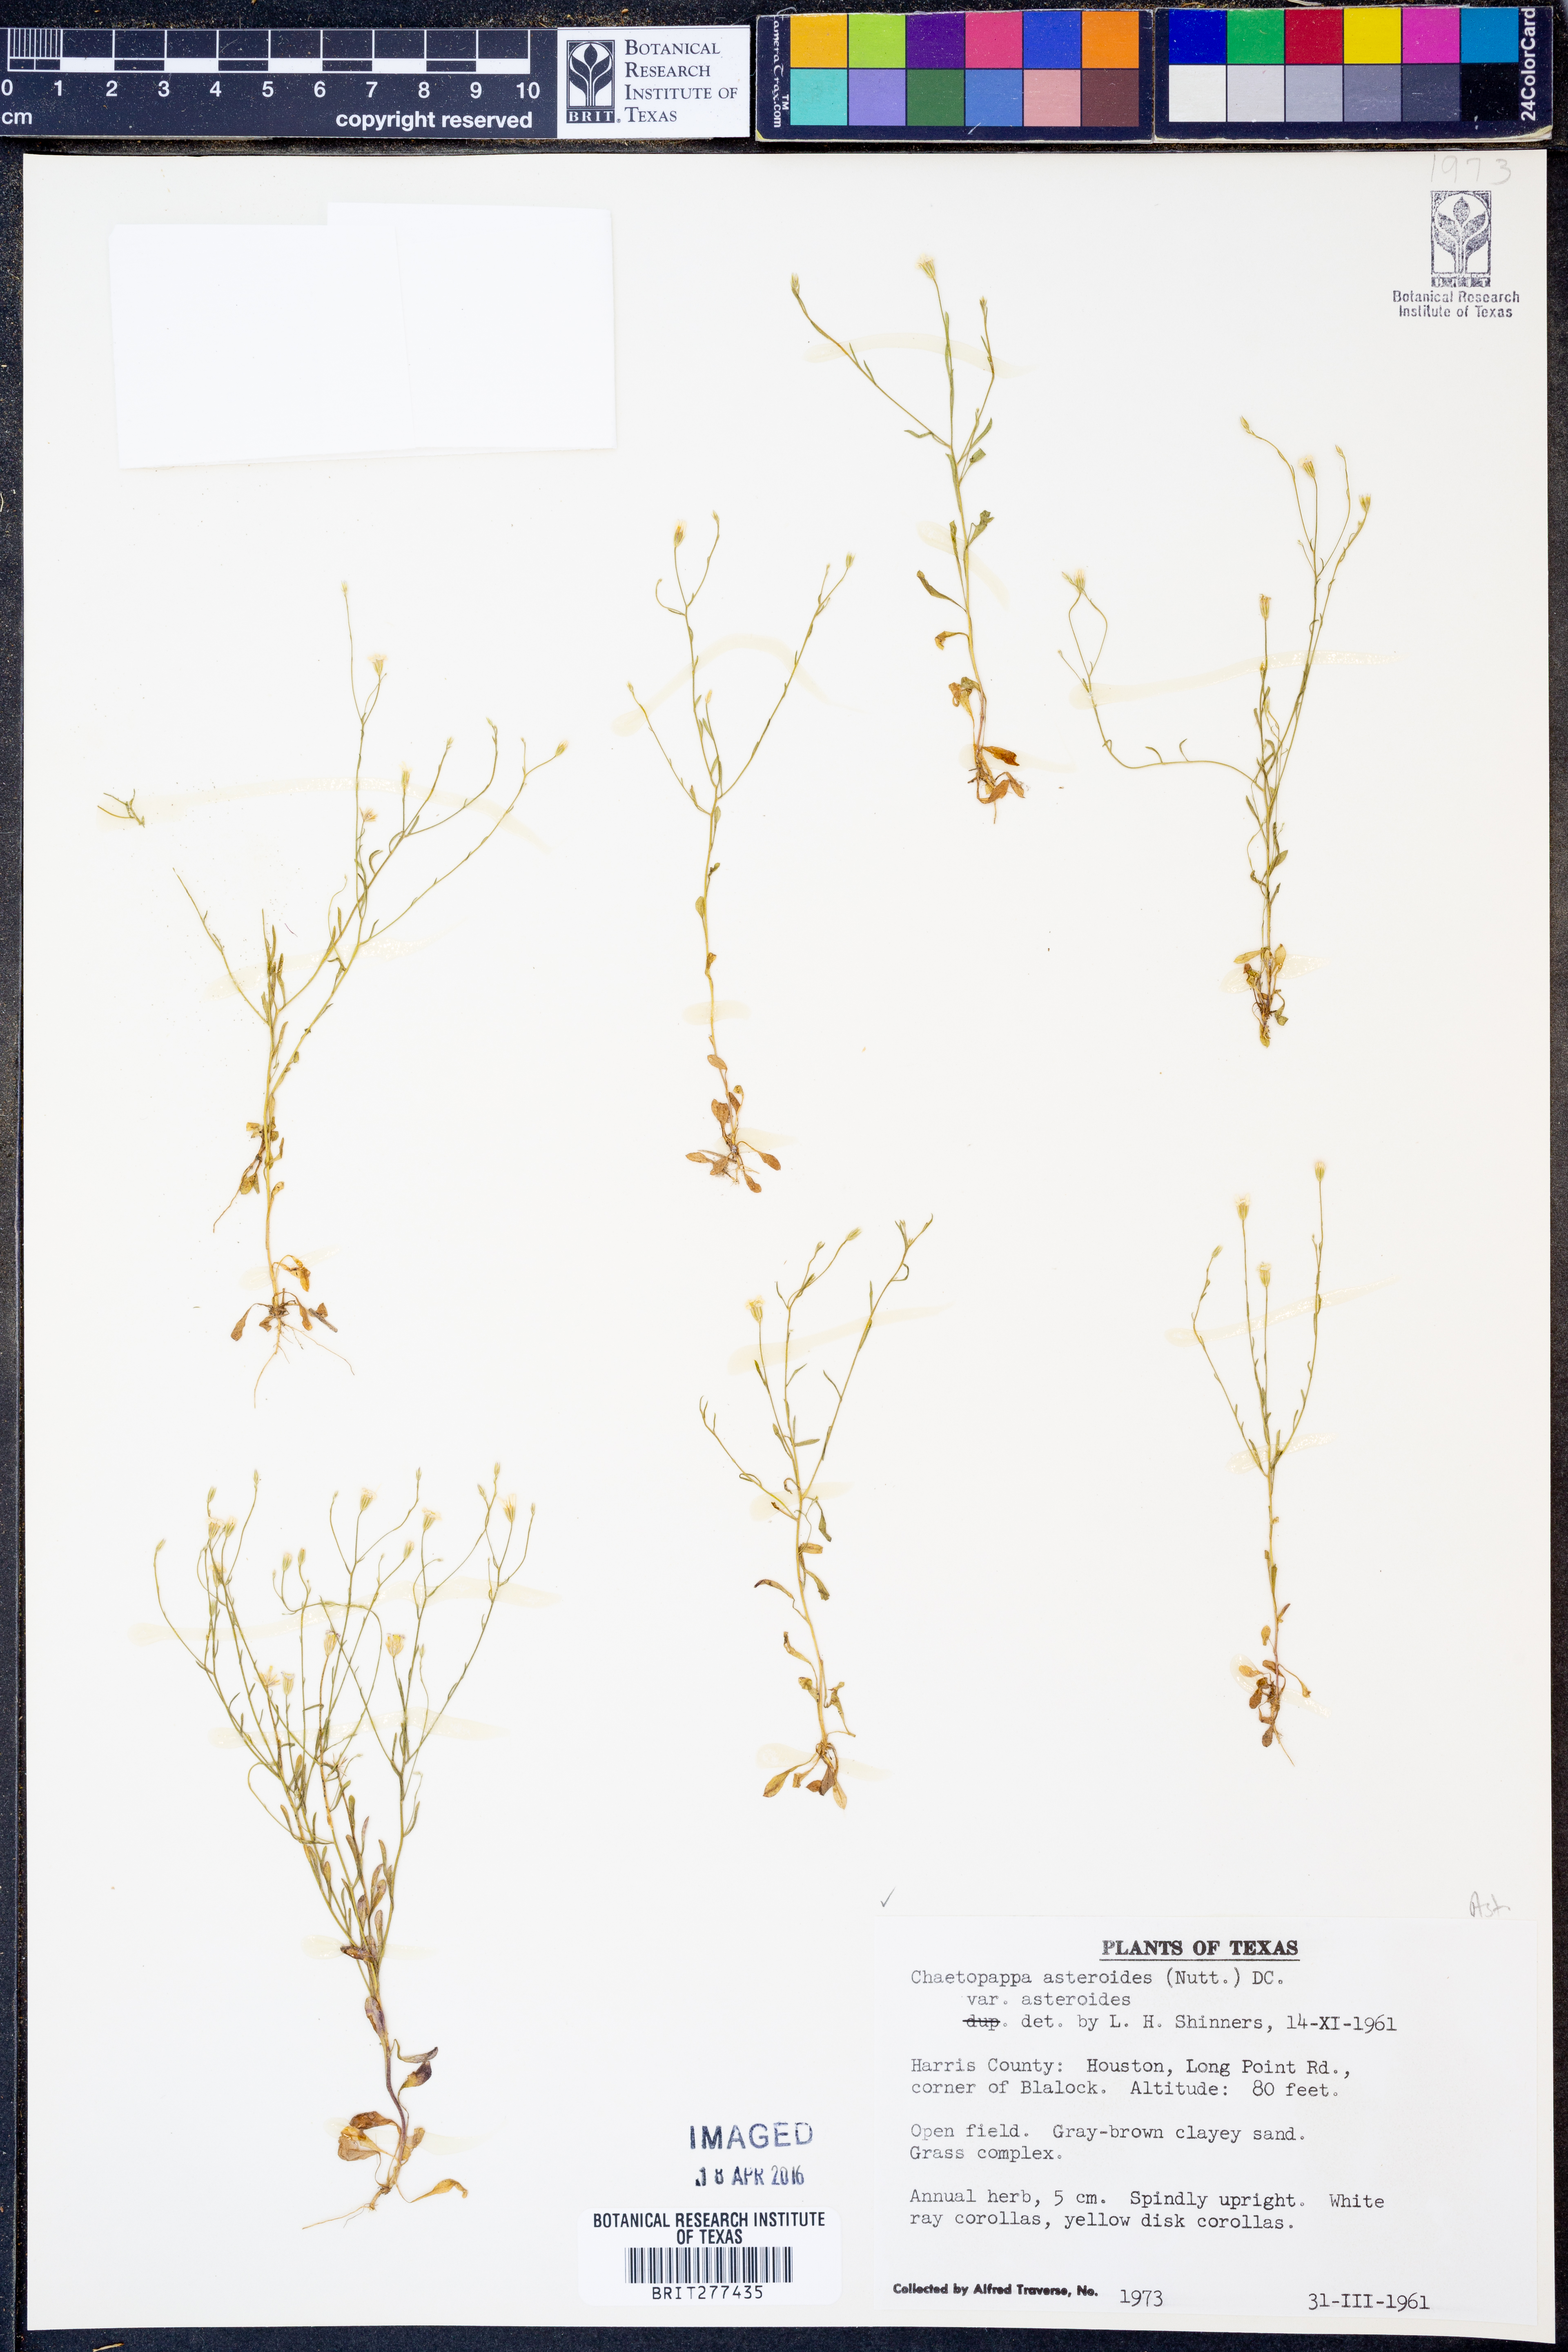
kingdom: Plantae
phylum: Tracheophyta
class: Magnoliopsida
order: Asterales
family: Asteraceae
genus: Chaetopappa
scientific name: Chaetopappa asteroides
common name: Tiny lazy daisy
